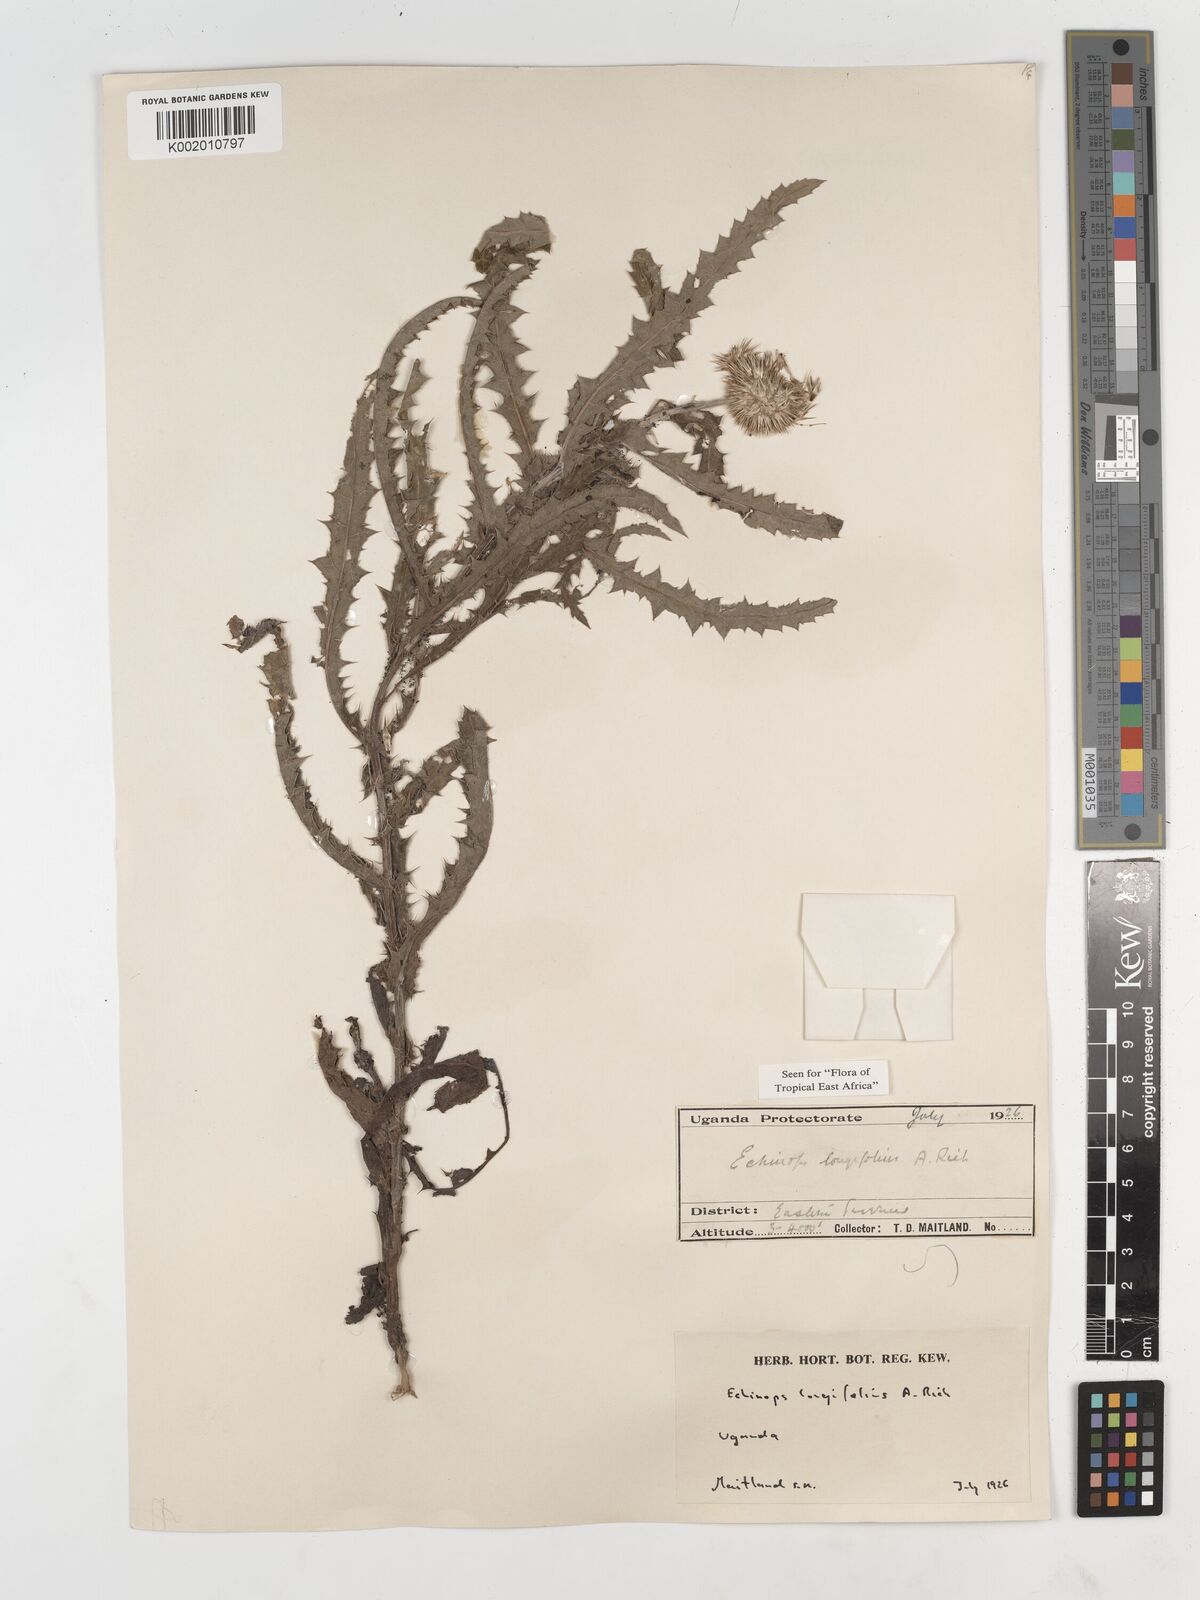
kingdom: Plantae
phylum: Tracheophyta
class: Magnoliopsida
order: Asterales
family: Asteraceae
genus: Echinops
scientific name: Echinops longifolius
